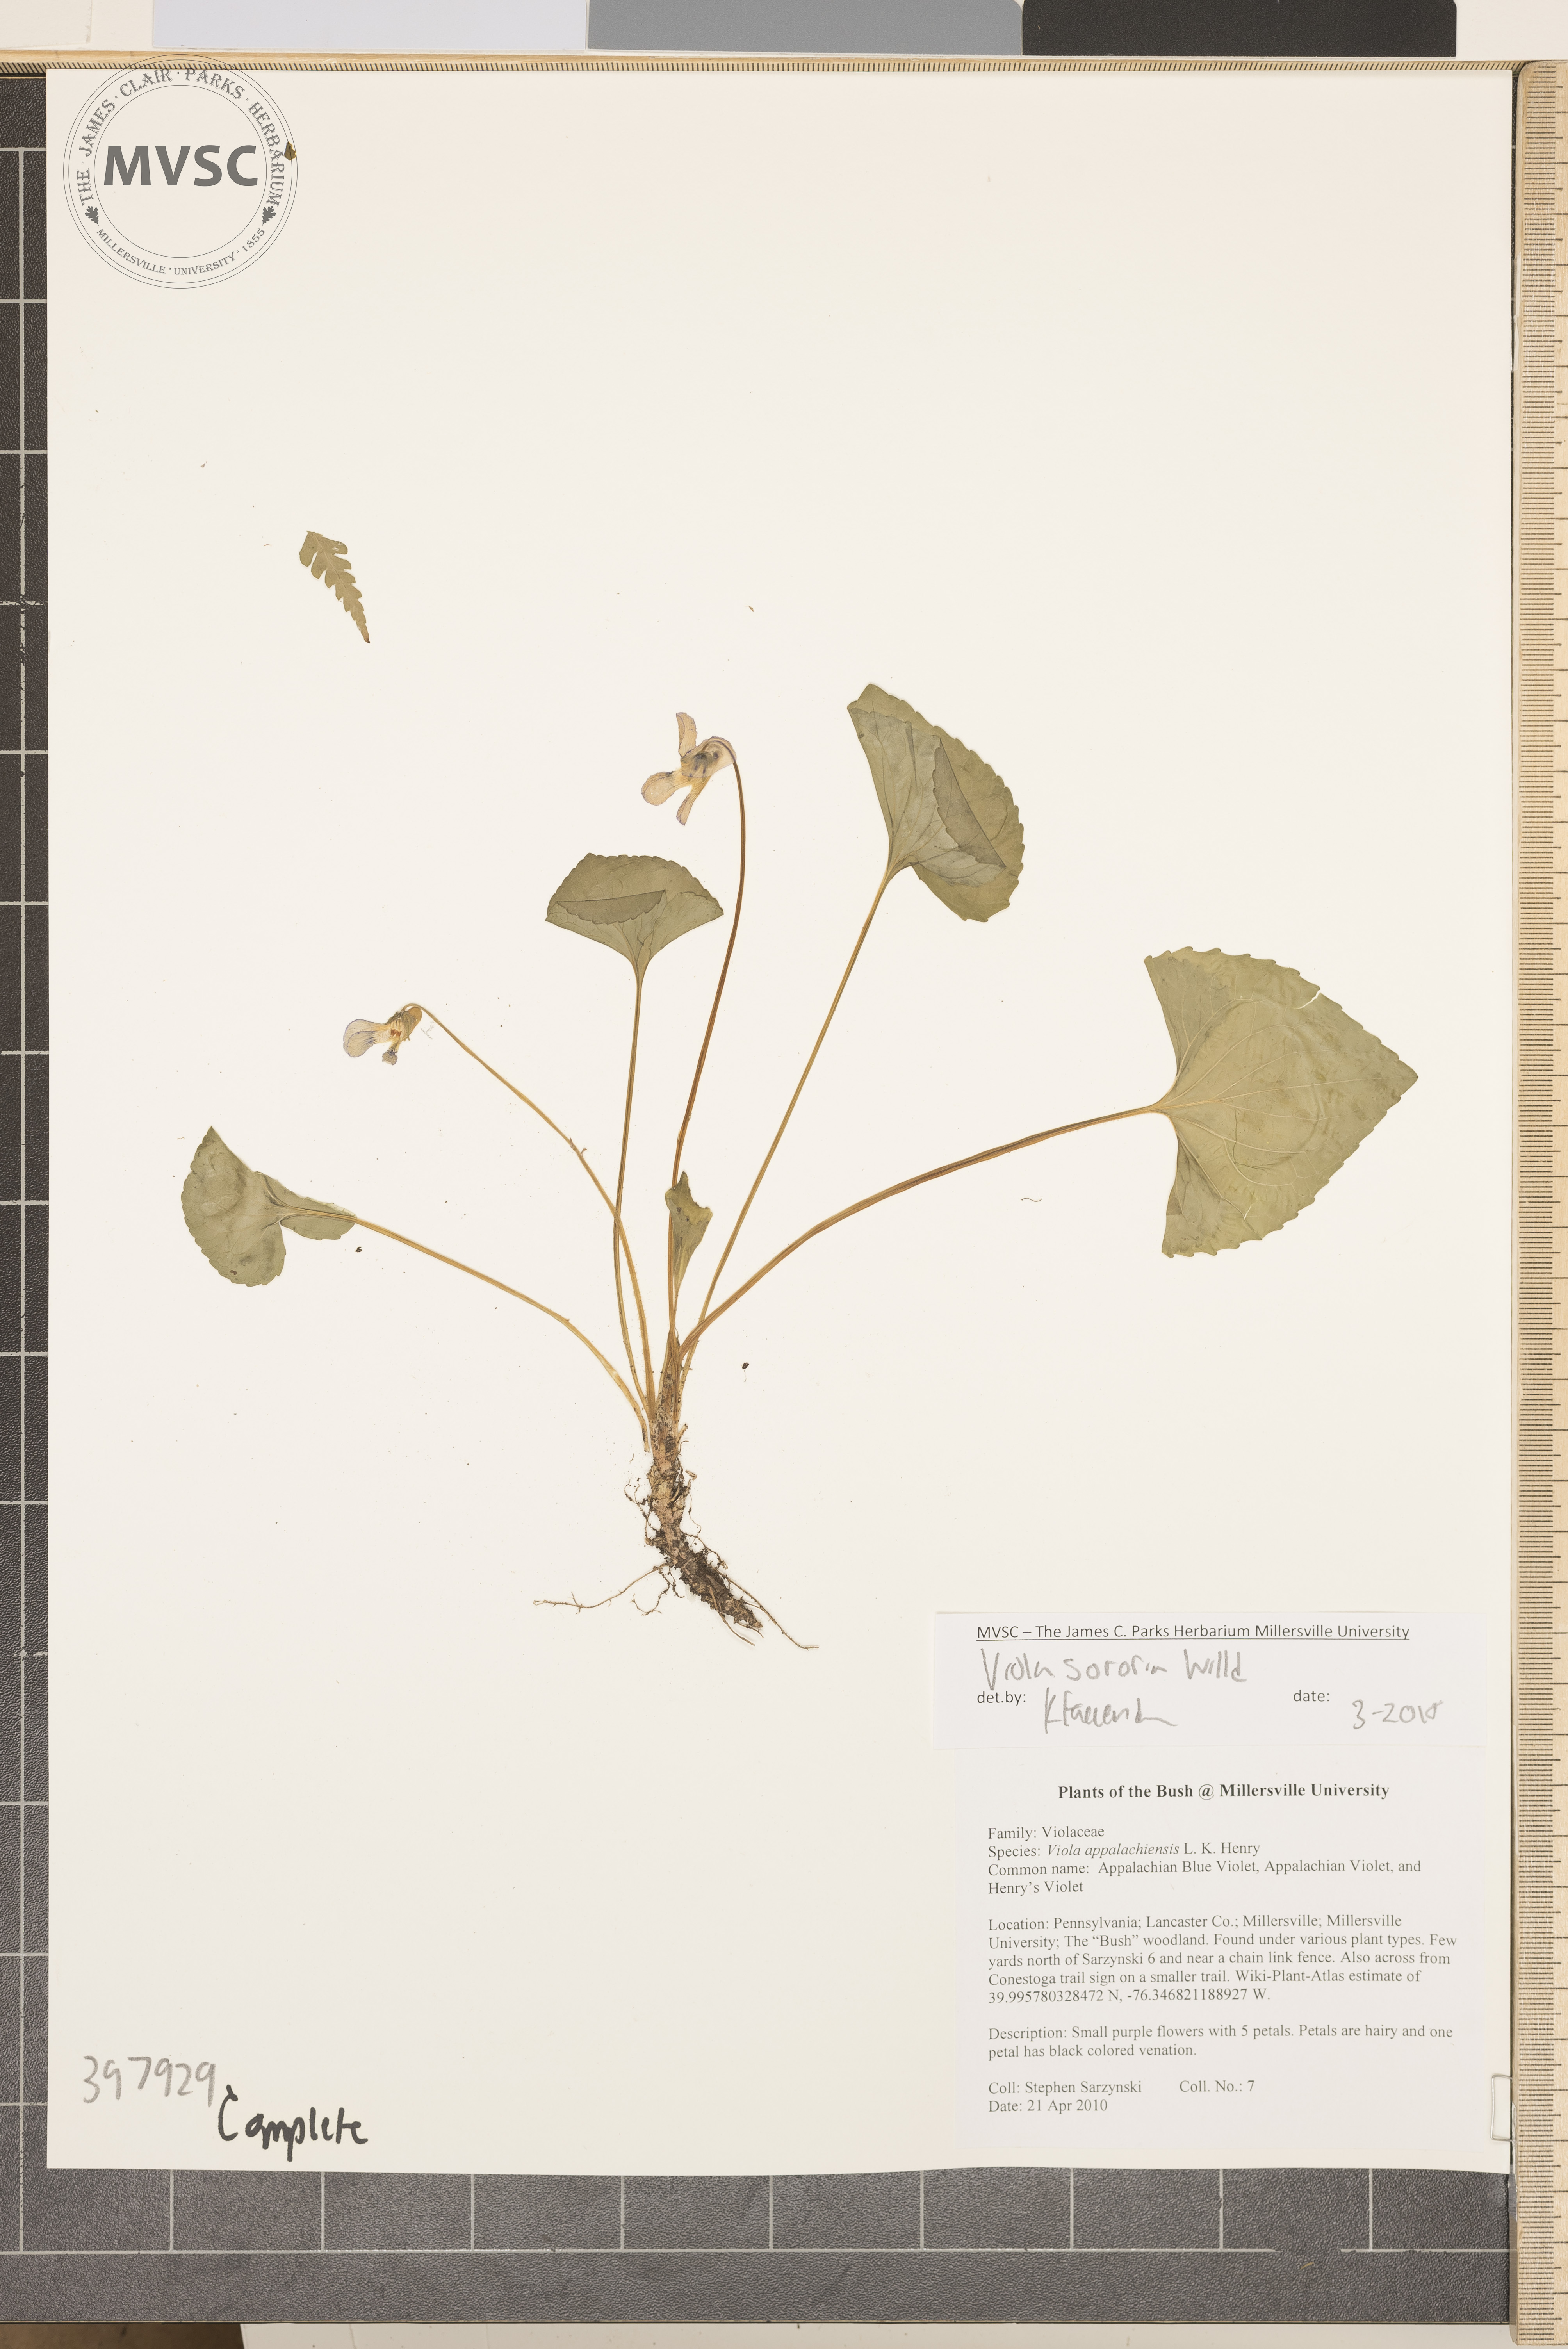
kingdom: Plantae
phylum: Tracheophyta
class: Magnoliopsida
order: Malpighiales
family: Violaceae
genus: Viola
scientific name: Viola sororia
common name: Violet
